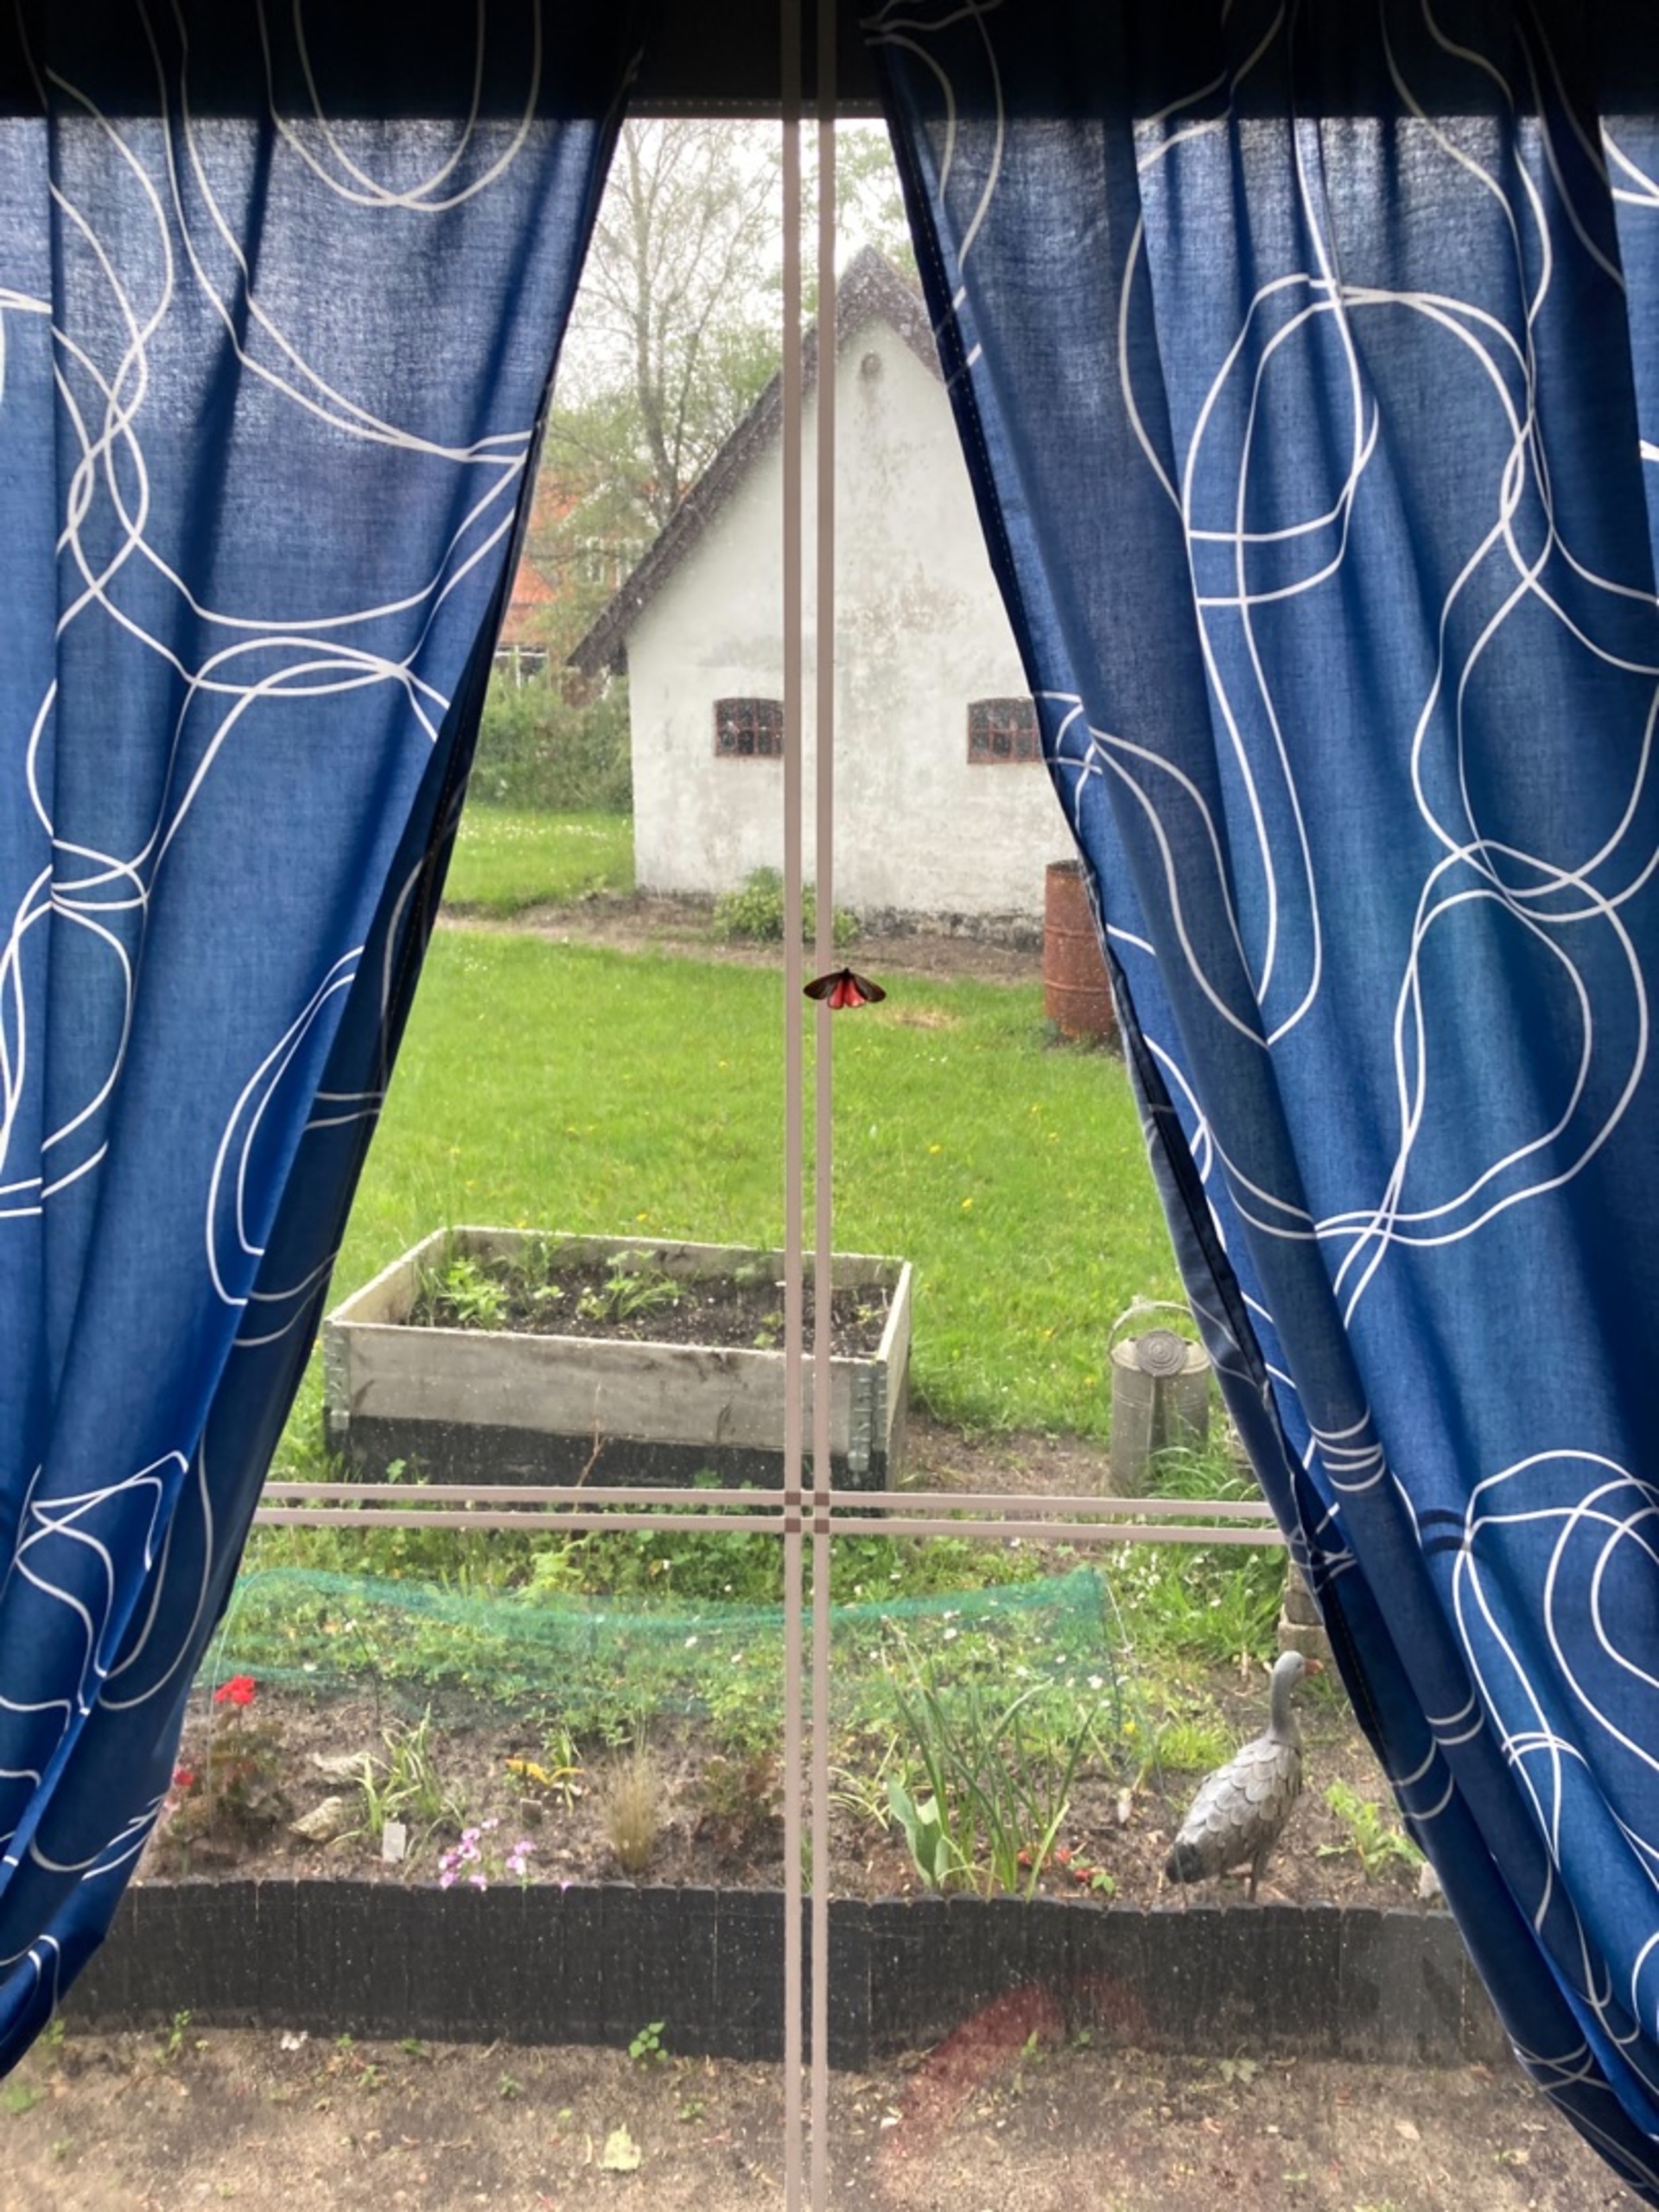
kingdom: Animalia
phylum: Arthropoda
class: Insecta
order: Lepidoptera
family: Erebidae
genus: Tyria
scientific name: Tyria jacobaeae
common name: Blodplet
